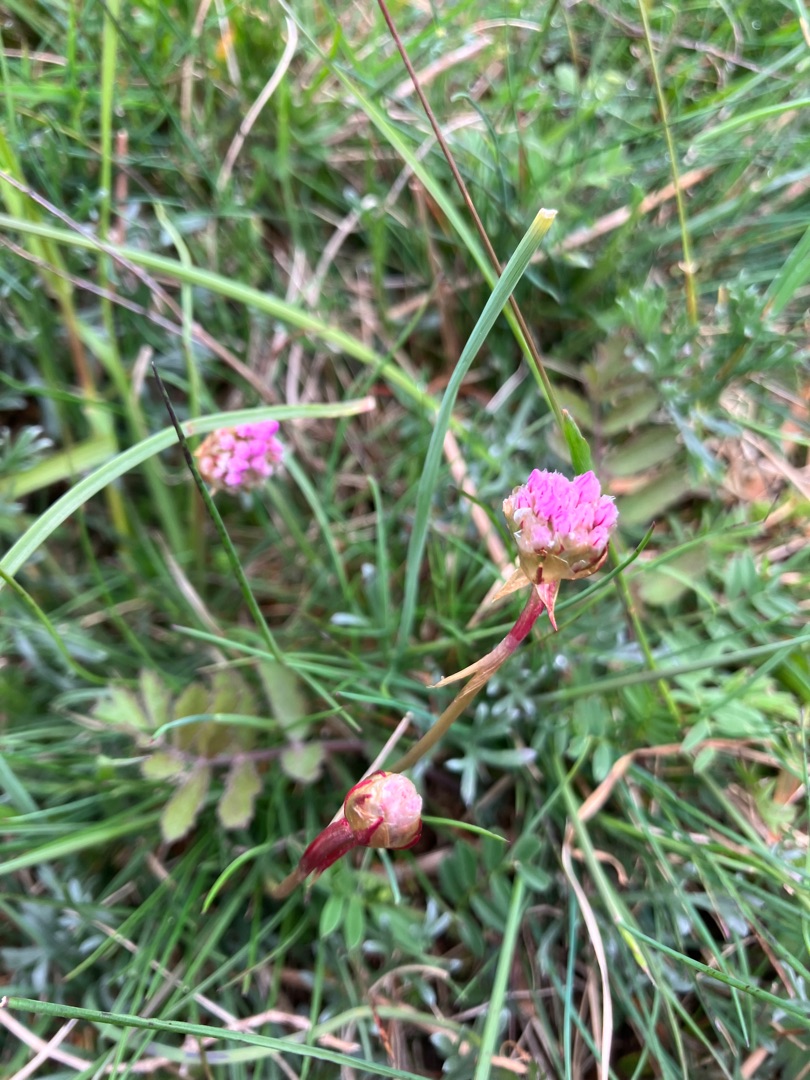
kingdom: Plantae
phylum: Tracheophyta
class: Magnoliopsida
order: Caryophyllales
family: Plumbaginaceae
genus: Armeria
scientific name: Armeria maritima
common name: Engelskgræs
